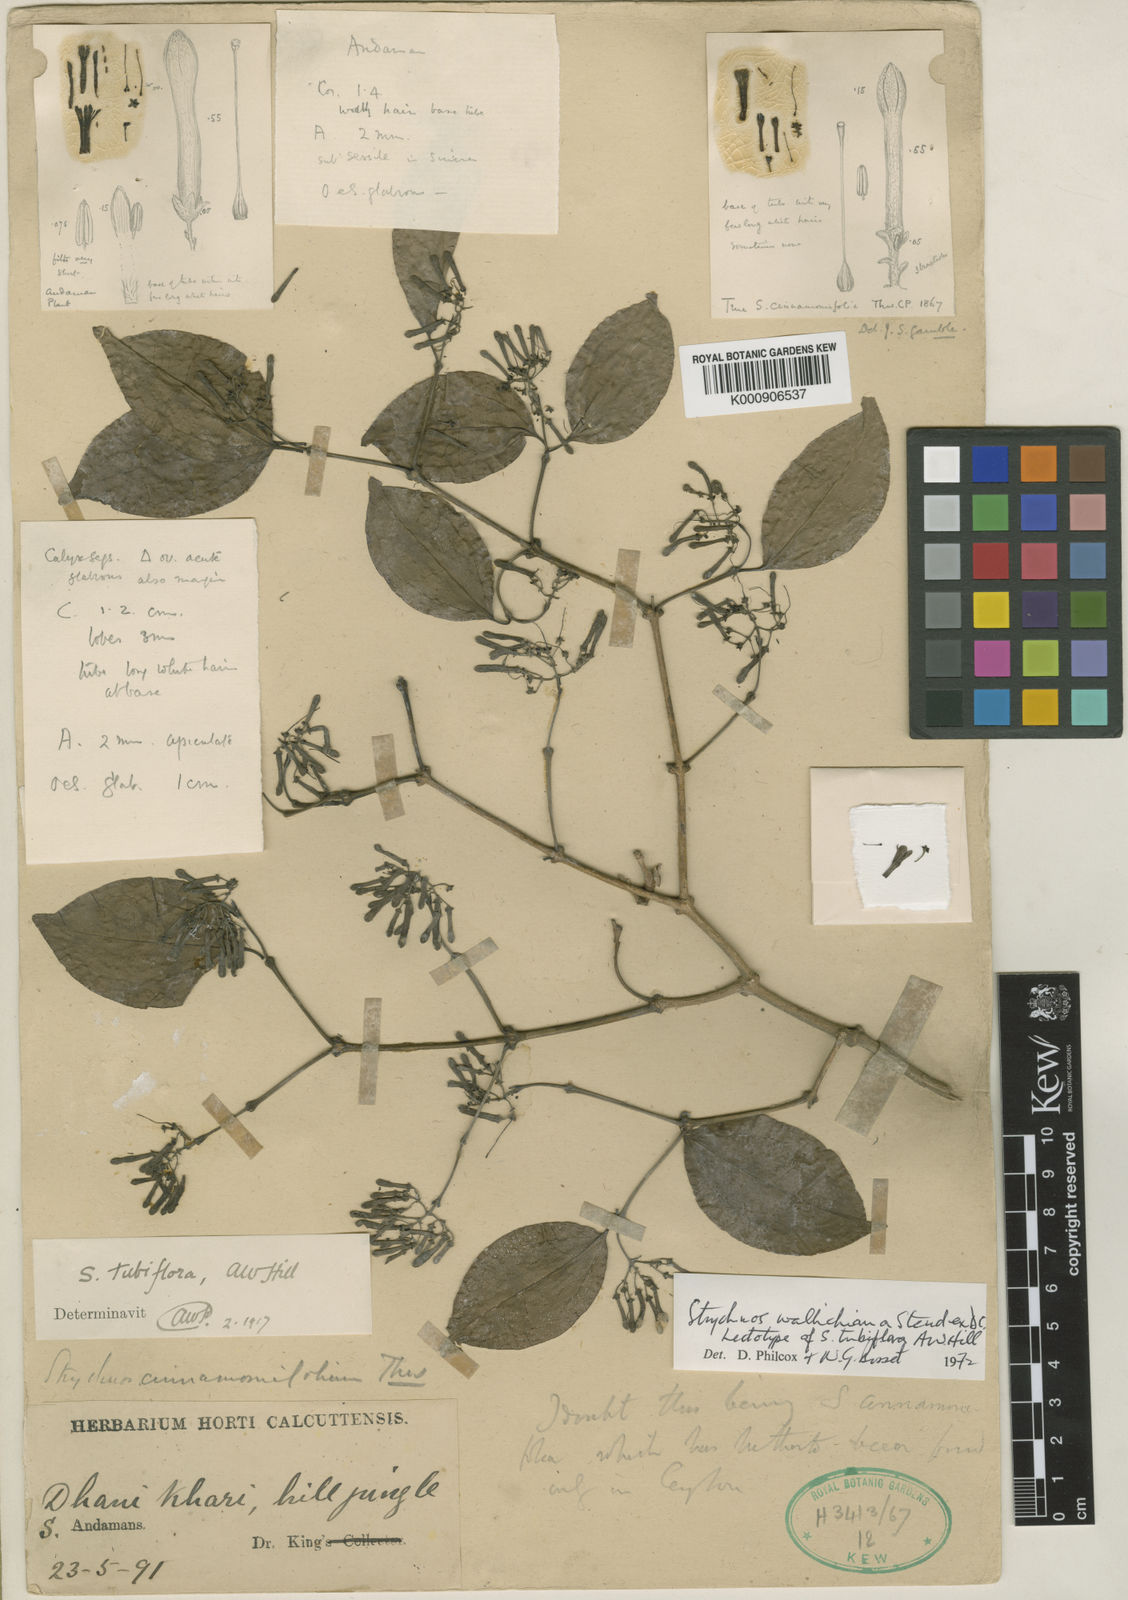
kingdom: Plantae
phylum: Tracheophyta
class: Magnoliopsida
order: Gentianales
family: Loganiaceae
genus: Strychnos
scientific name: Strychnos wallichiana
